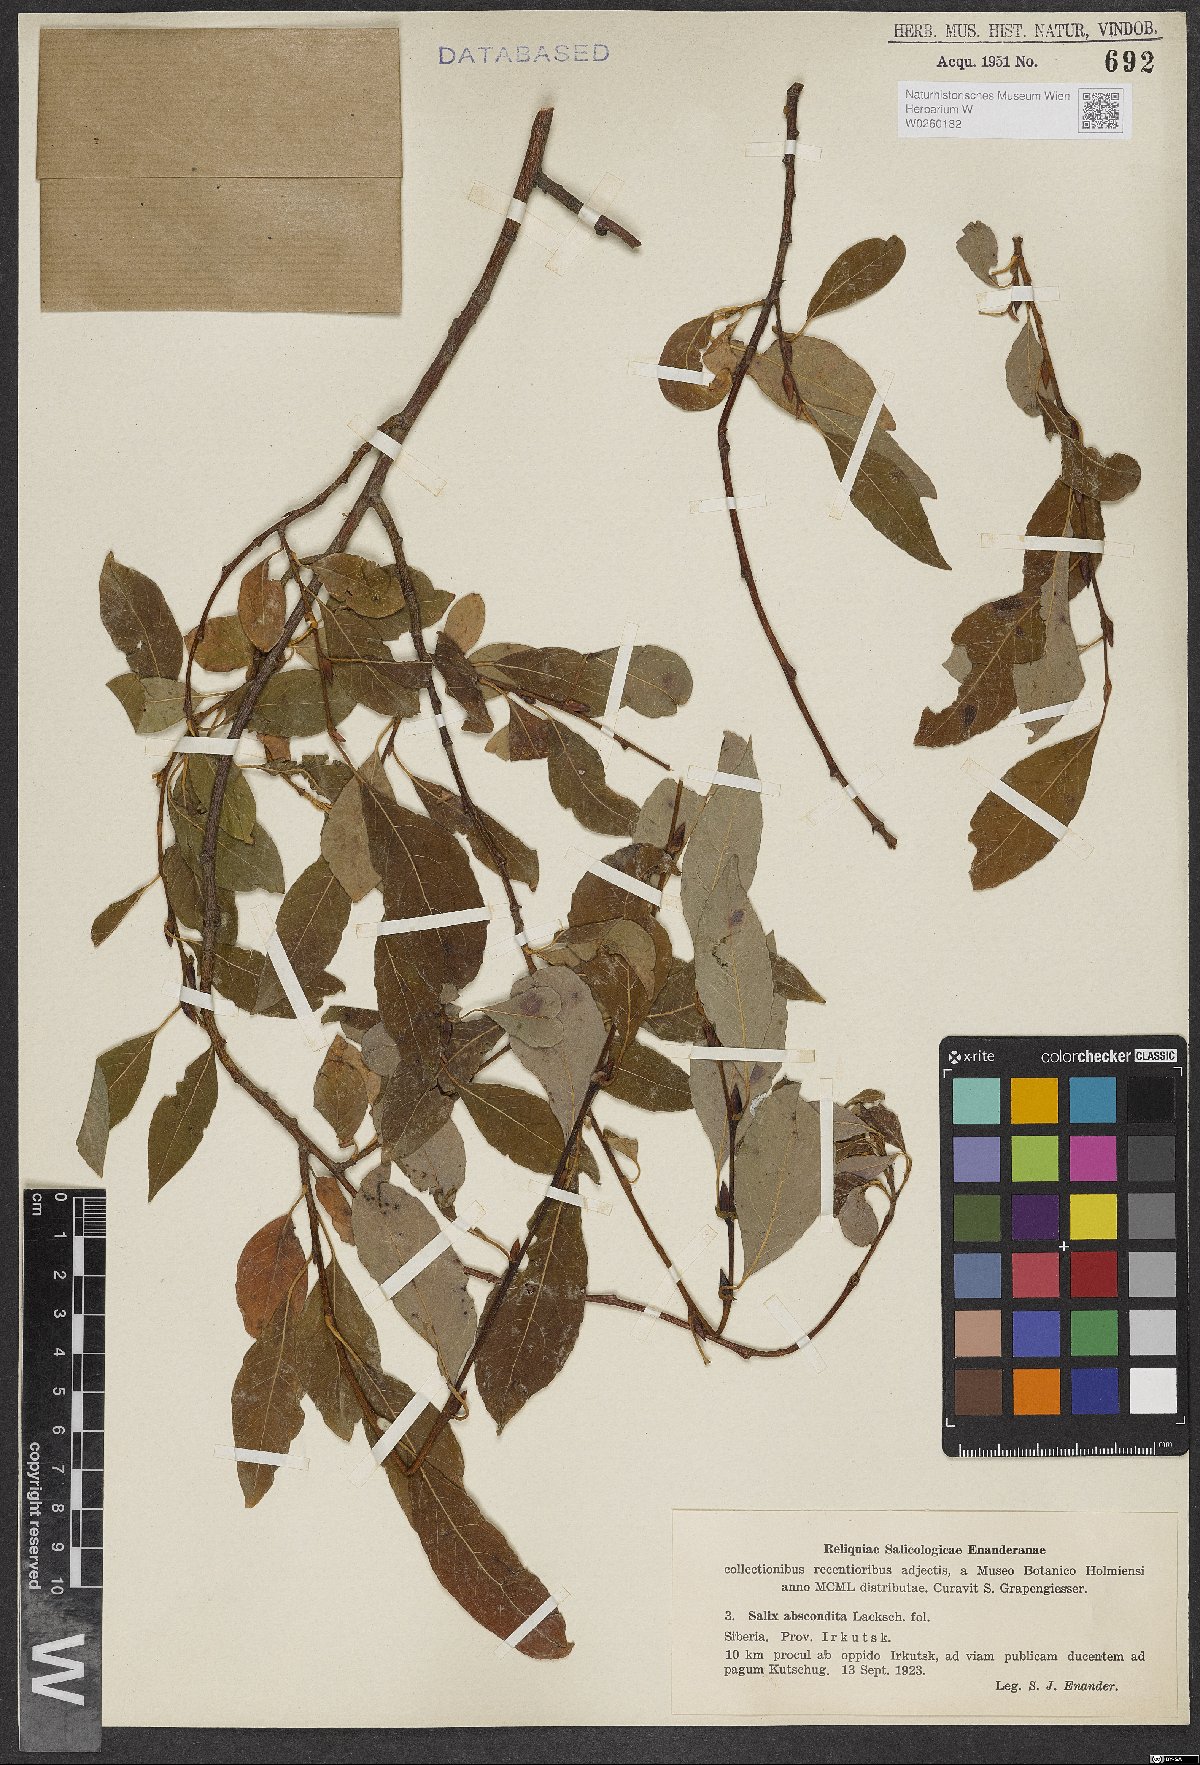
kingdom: Plantae
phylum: Tracheophyta
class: Magnoliopsida
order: Malpighiales
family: Salicaceae
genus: Salix
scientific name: Salix abscondita
